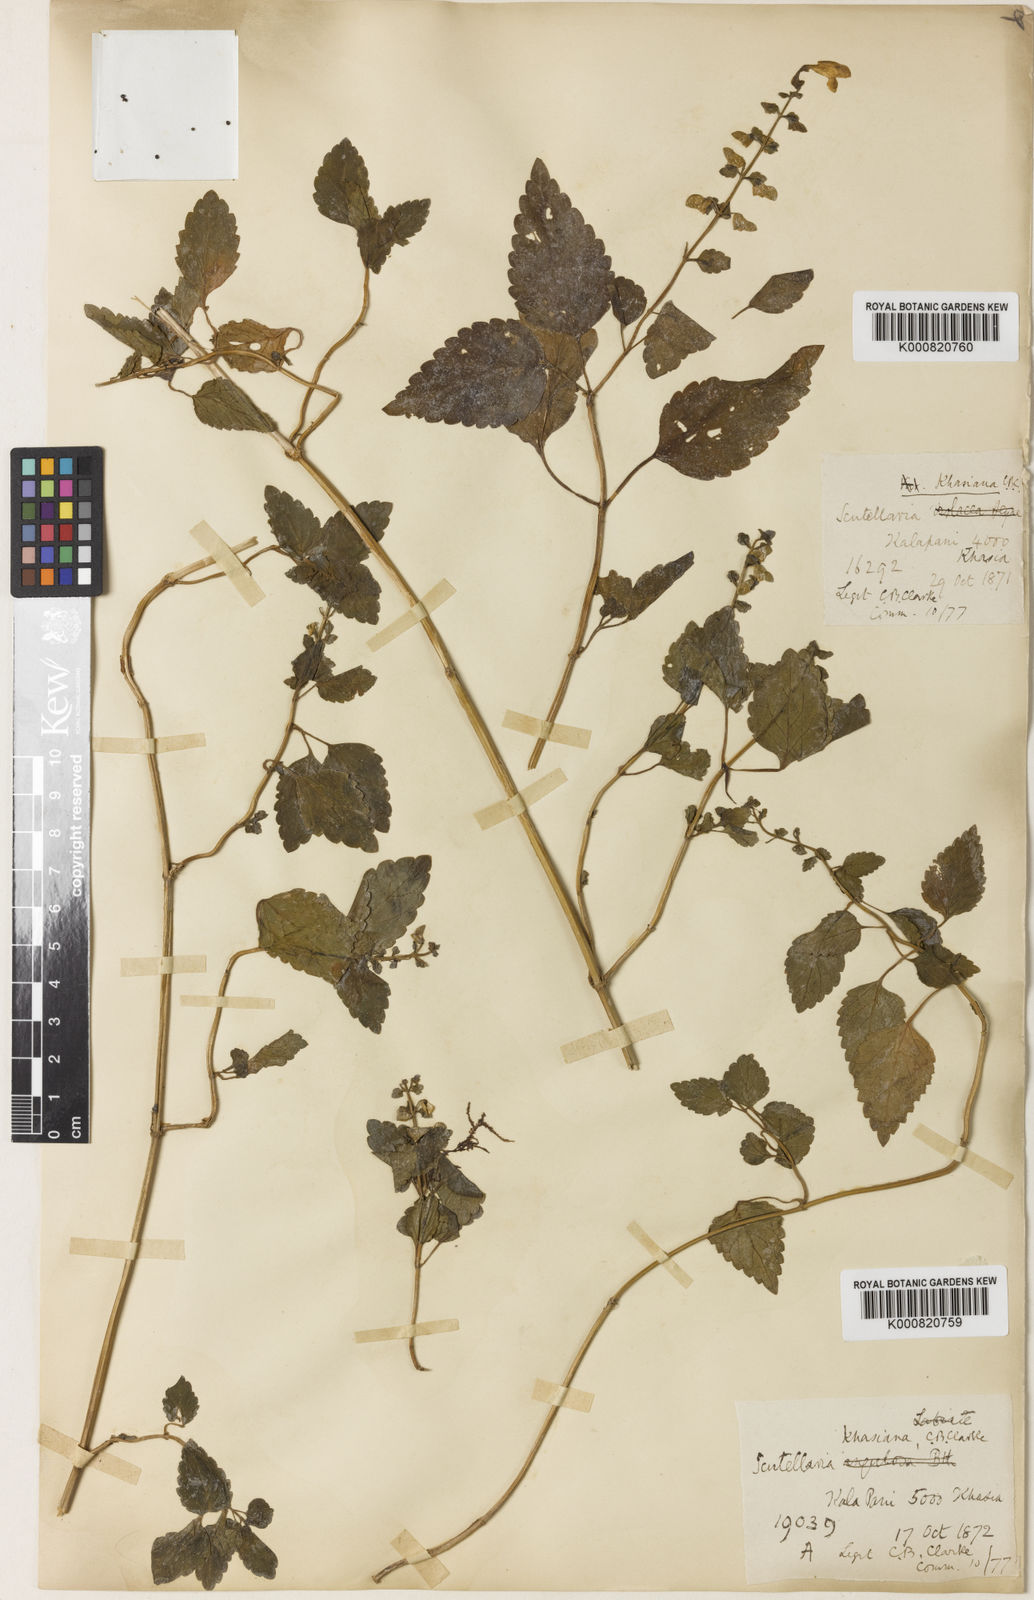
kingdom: Plantae
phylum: Tracheophyta
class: Magnoliopsida
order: Lamiales
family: Lamiaceae
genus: Scutellaria
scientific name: Scutellaria khasiana
